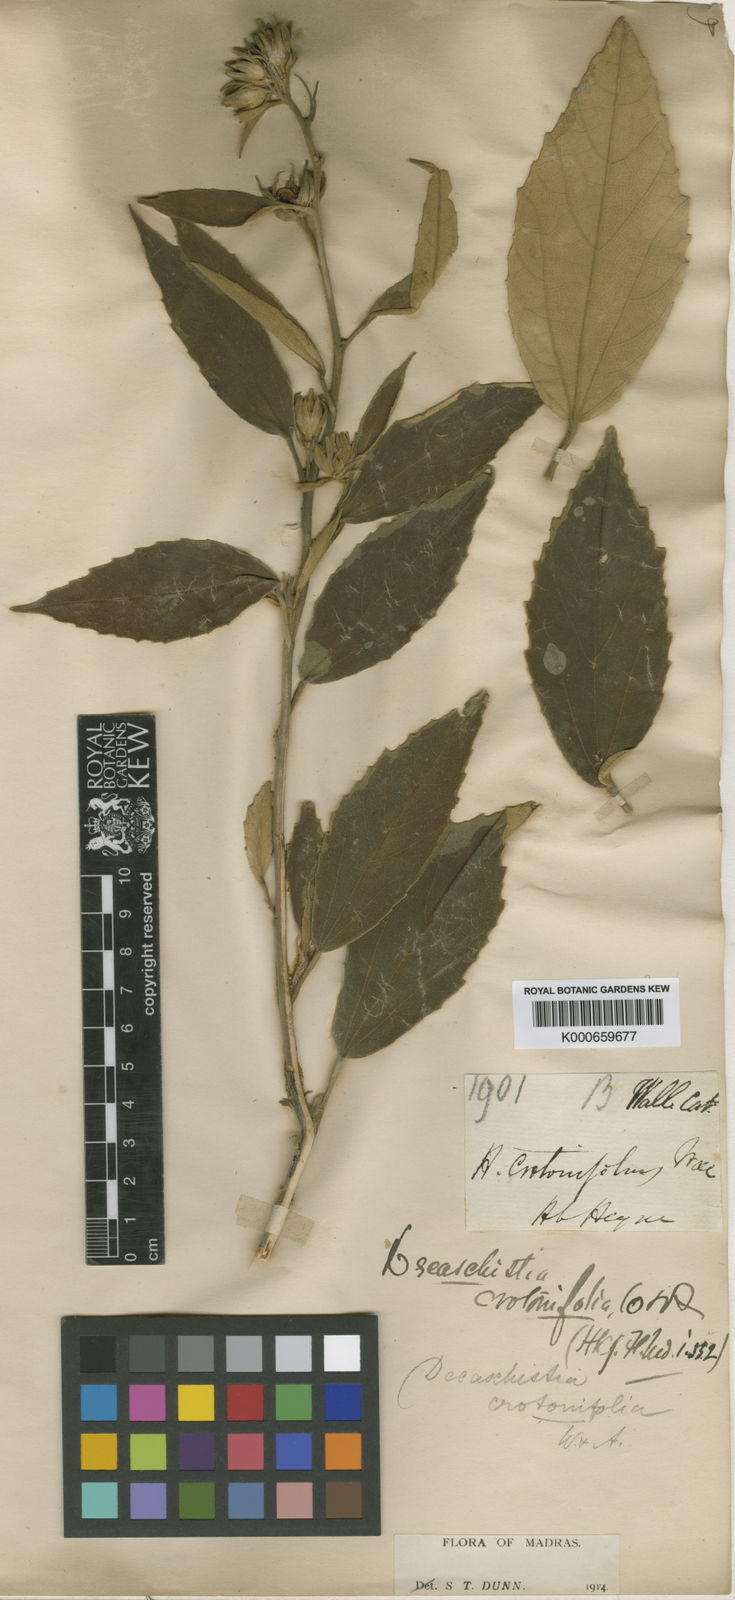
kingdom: Plantae
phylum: Tracheophyta
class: Magnoliopsida
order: Malvales
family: Malvaceae
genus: Decaschistia
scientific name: Decaschistia crotonifolia
